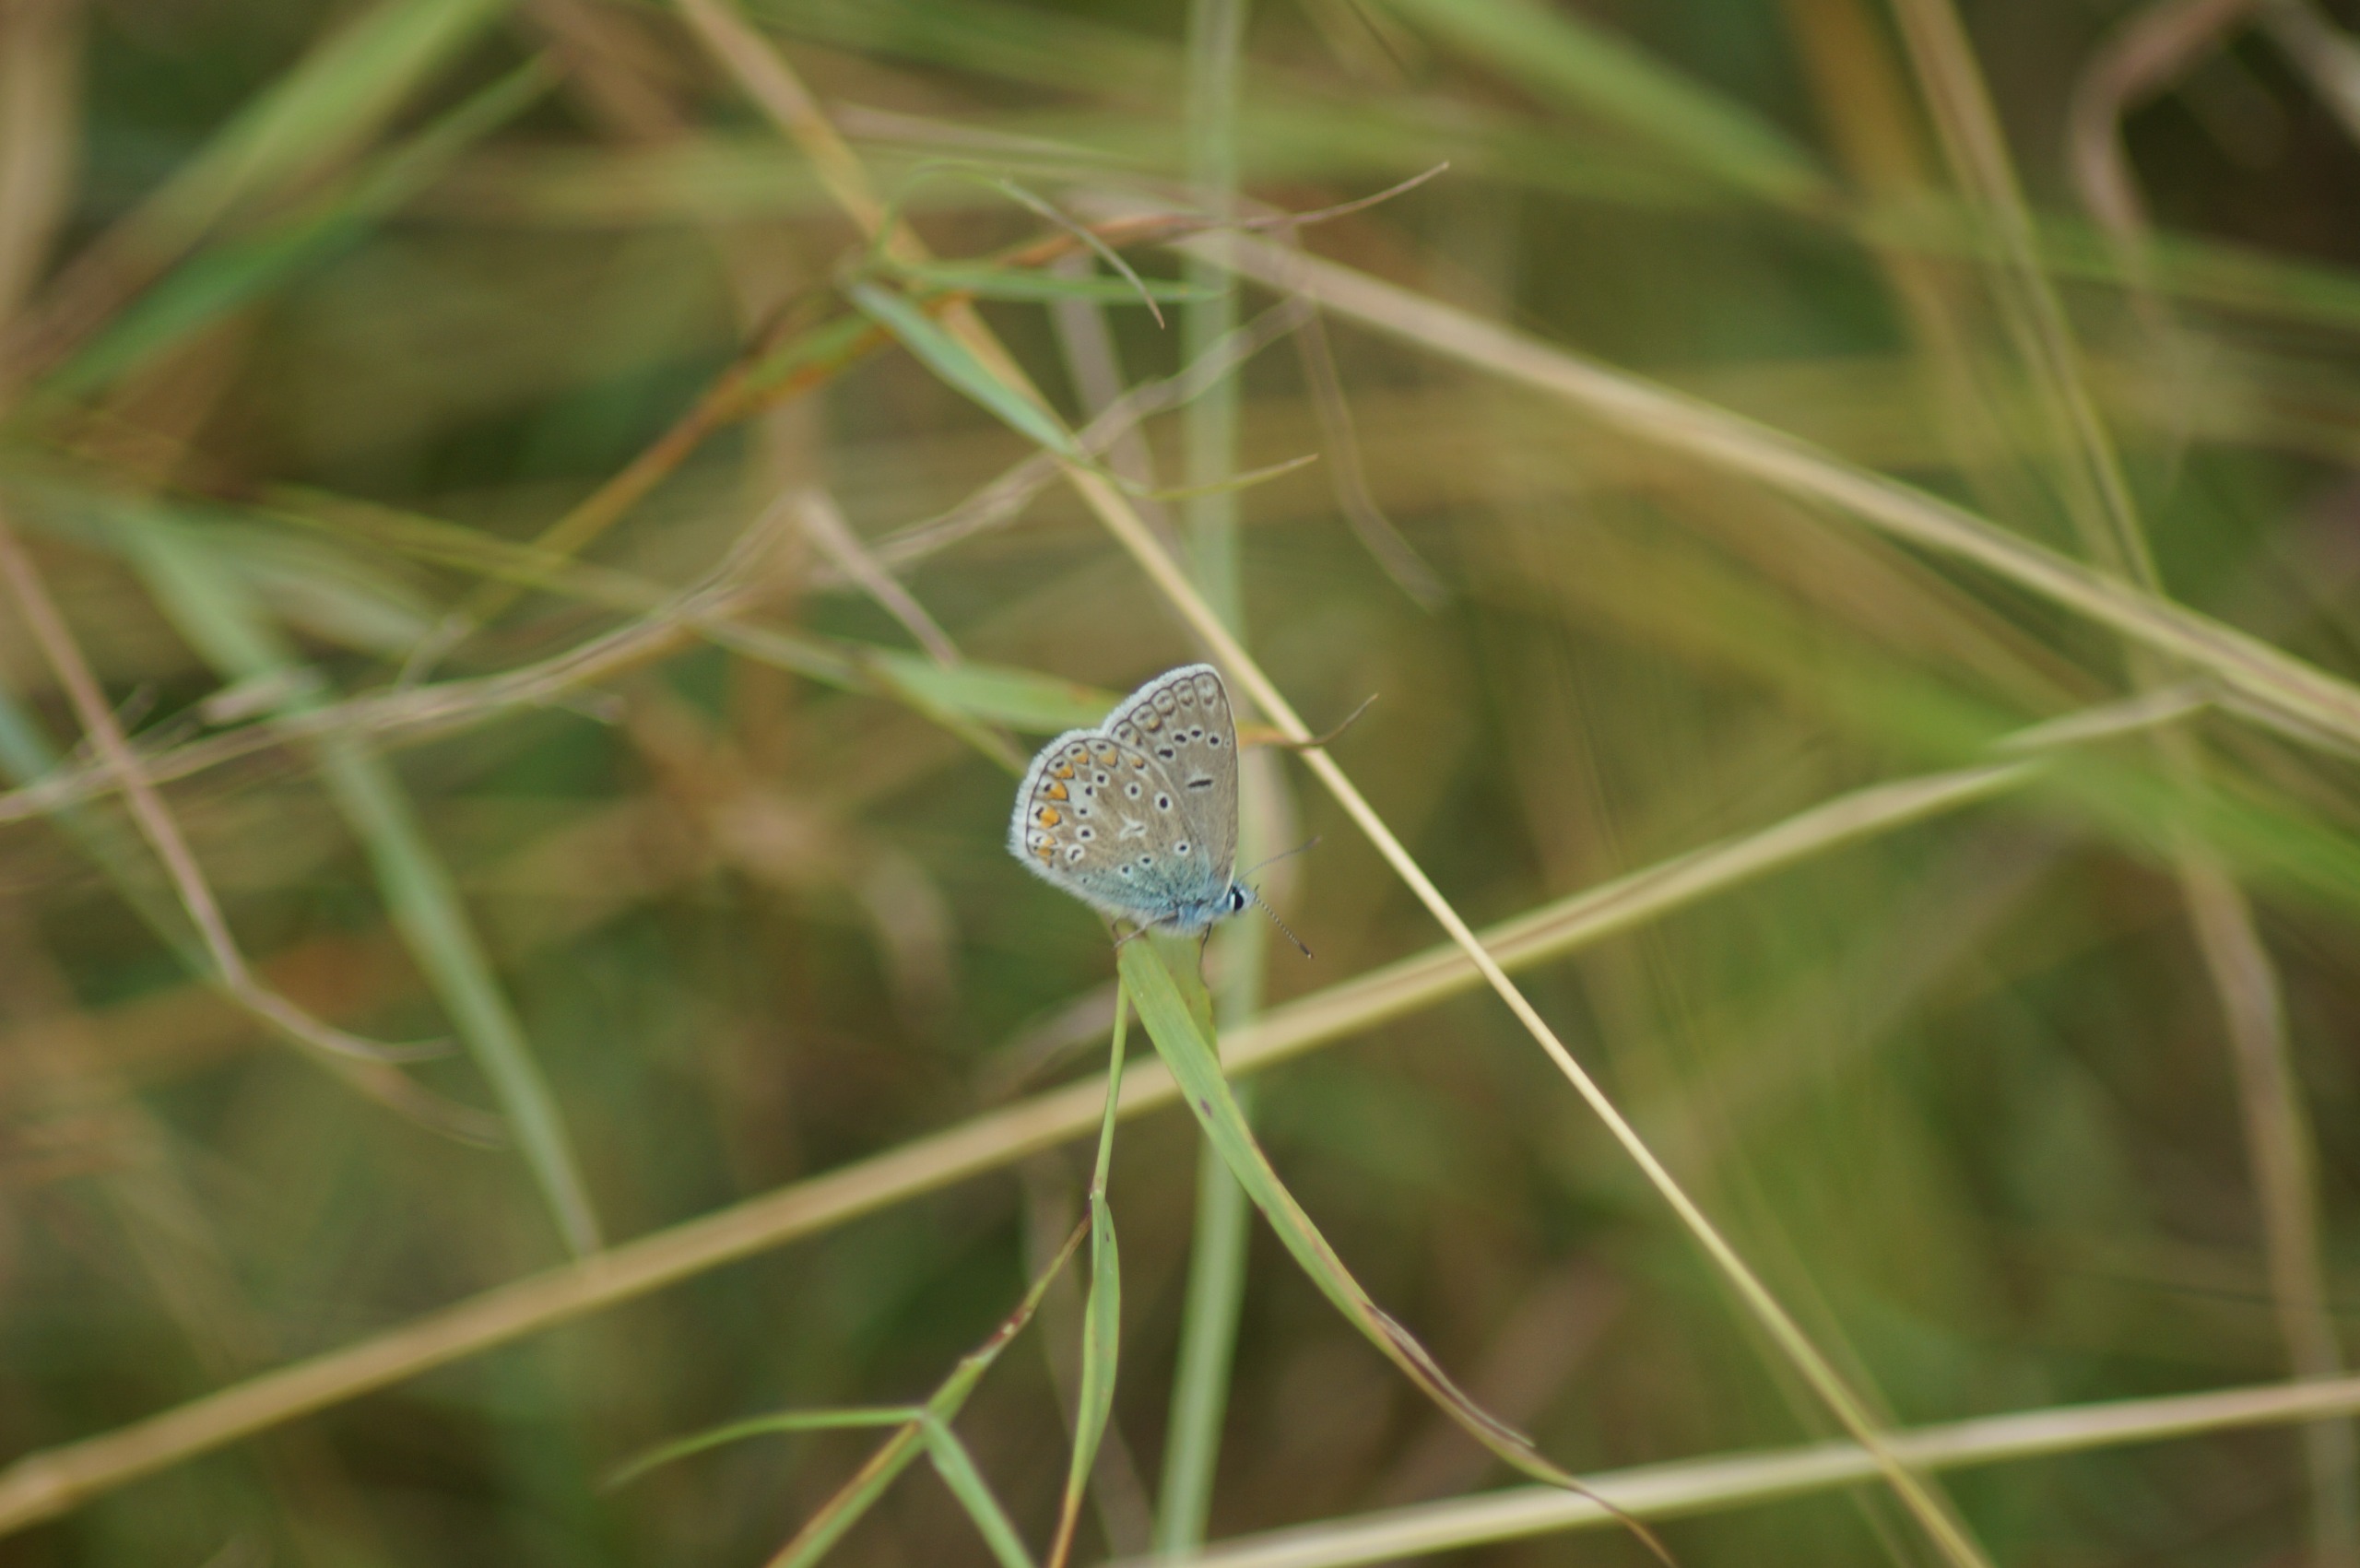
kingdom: Animalia
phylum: Arthropoda
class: Insecta
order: Lepidoptera
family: Lycaenidae
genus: Polyommatus
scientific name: Polyommatus icarus
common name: Almindelig blåfugl
